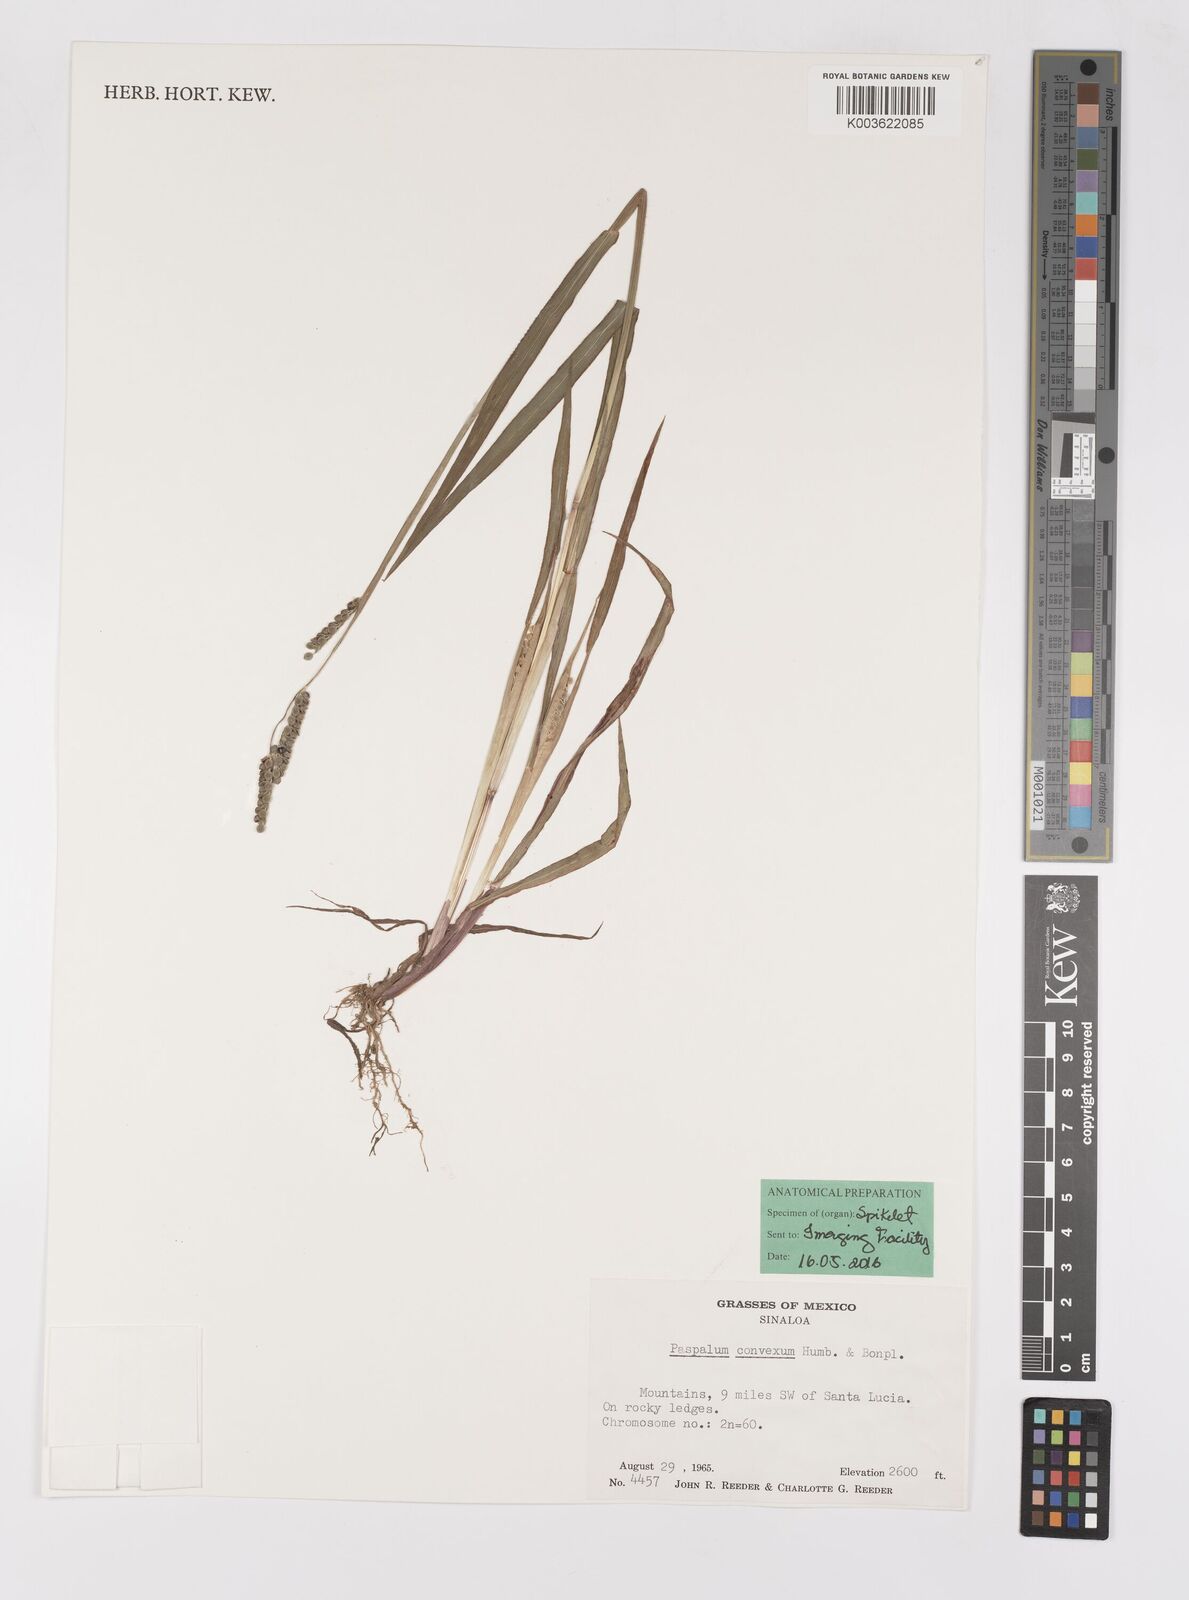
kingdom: Plantae
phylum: Tracheophyta
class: Liliopsida
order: Poales
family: Poaceae
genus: Paspalum
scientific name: Paspalum convexum
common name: Latin american crowngrass
